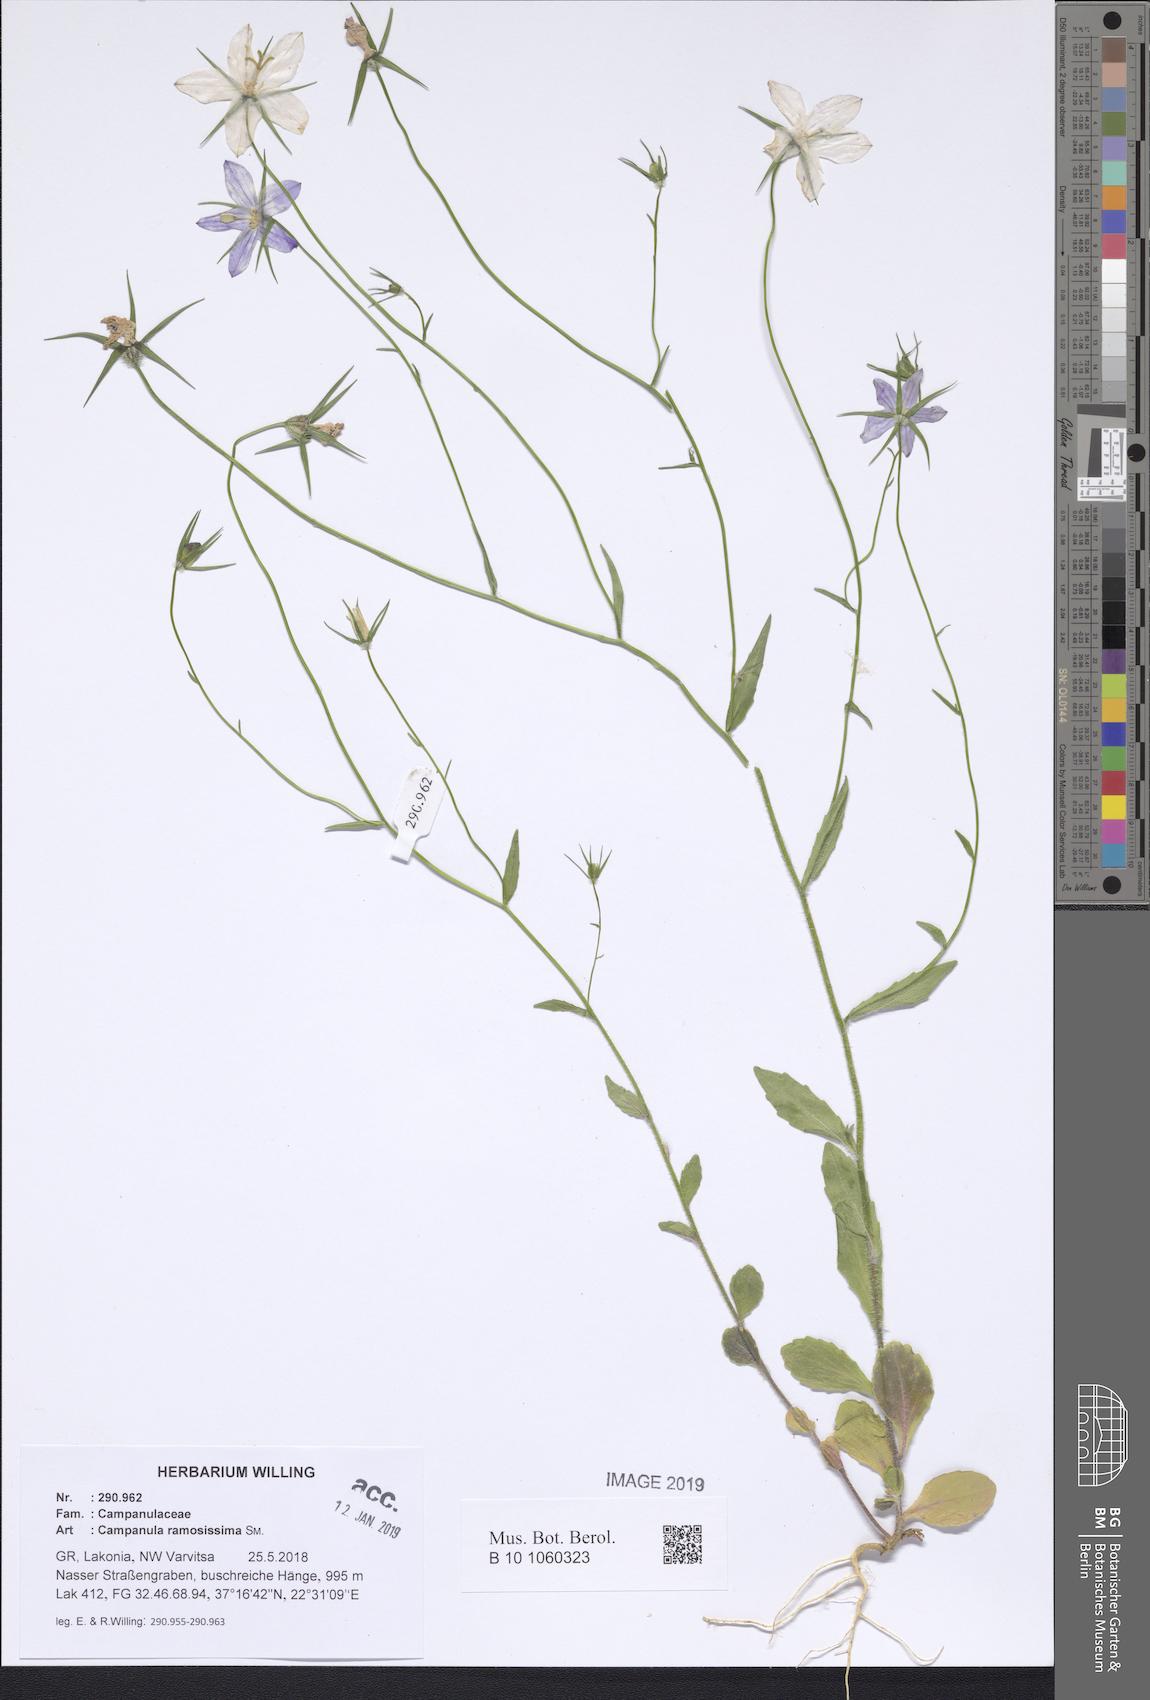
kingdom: Plantae
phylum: Tracheophyta
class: Magnoliopsida
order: Asterales
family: Campanulaceae
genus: Campanula
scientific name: Campanula ramosissima
